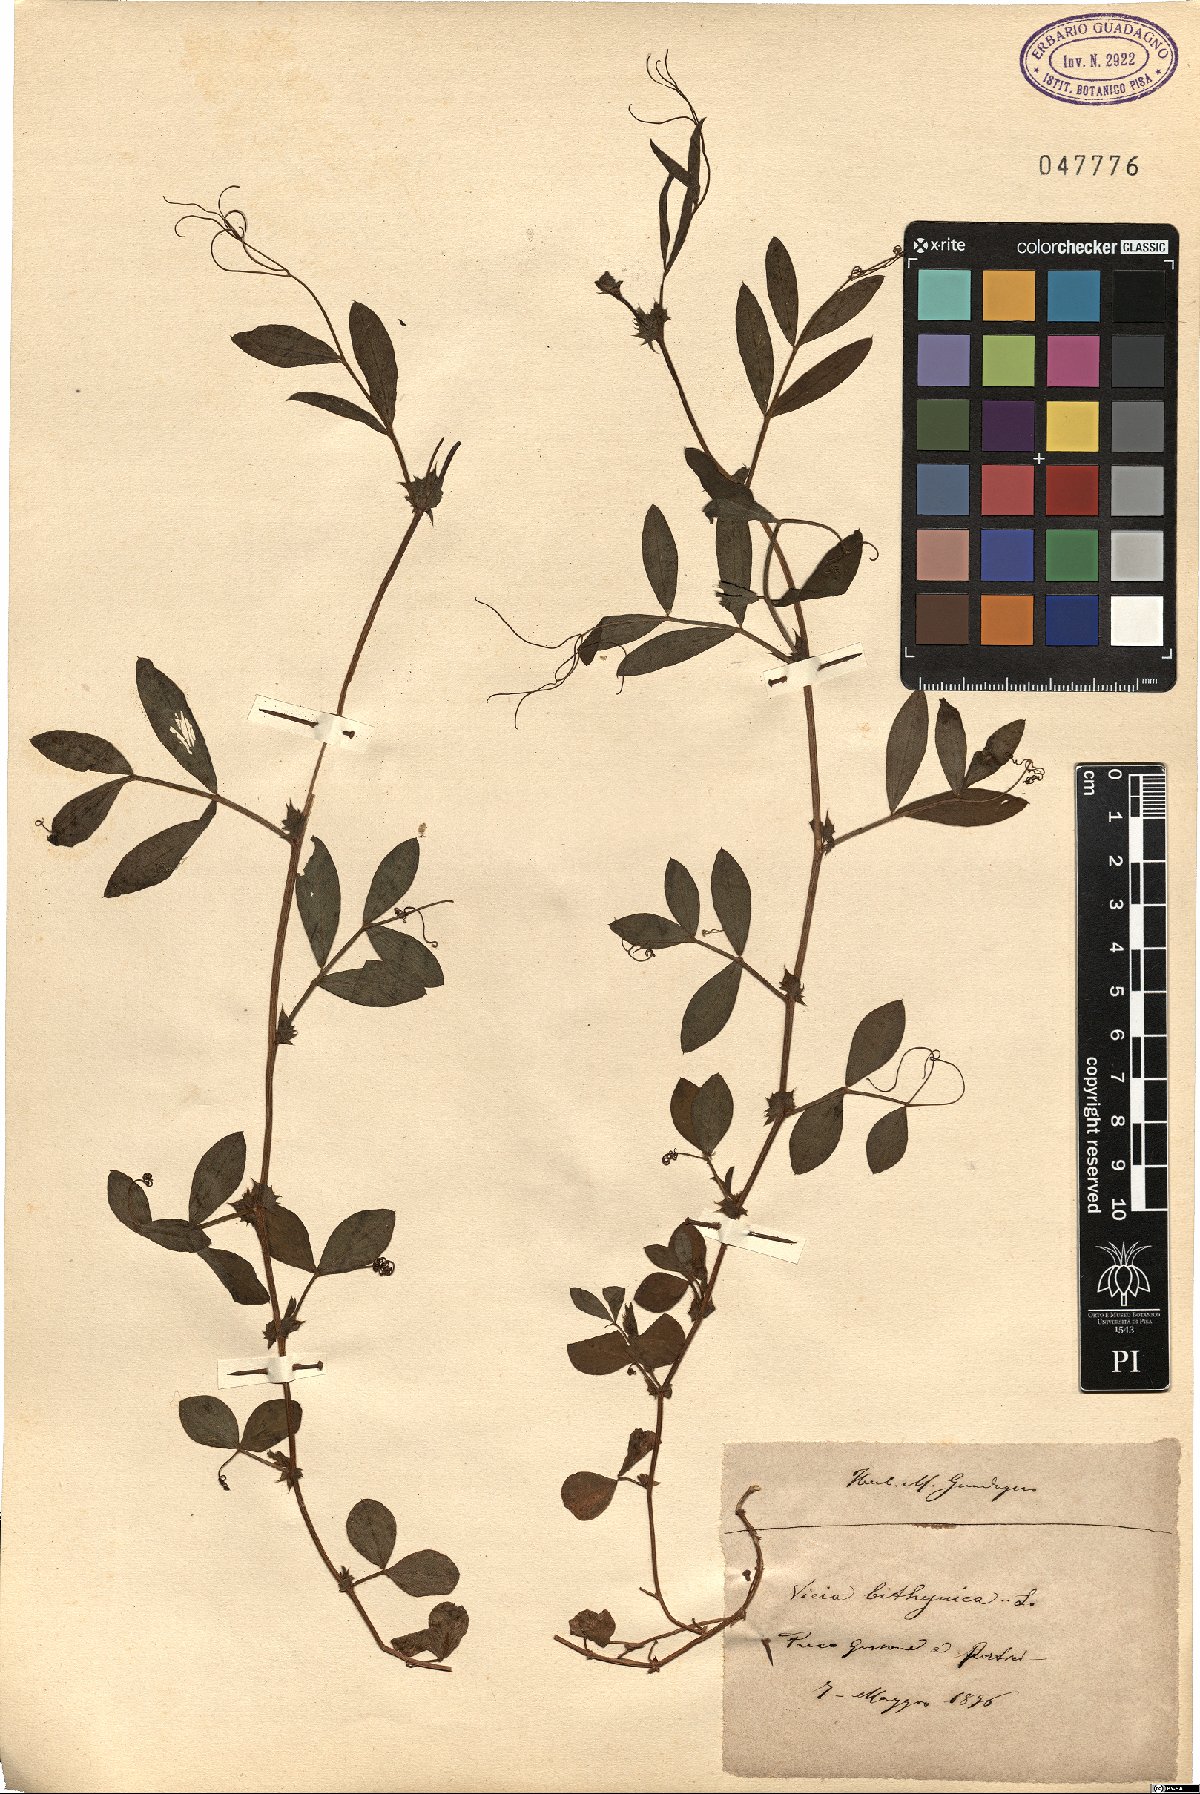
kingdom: Plantae
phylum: Tracheophyta
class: Magnoliopsida
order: Fabales
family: Fabaceae
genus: Vicia
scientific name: Vicia bithynica
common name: Bithynian vetch
